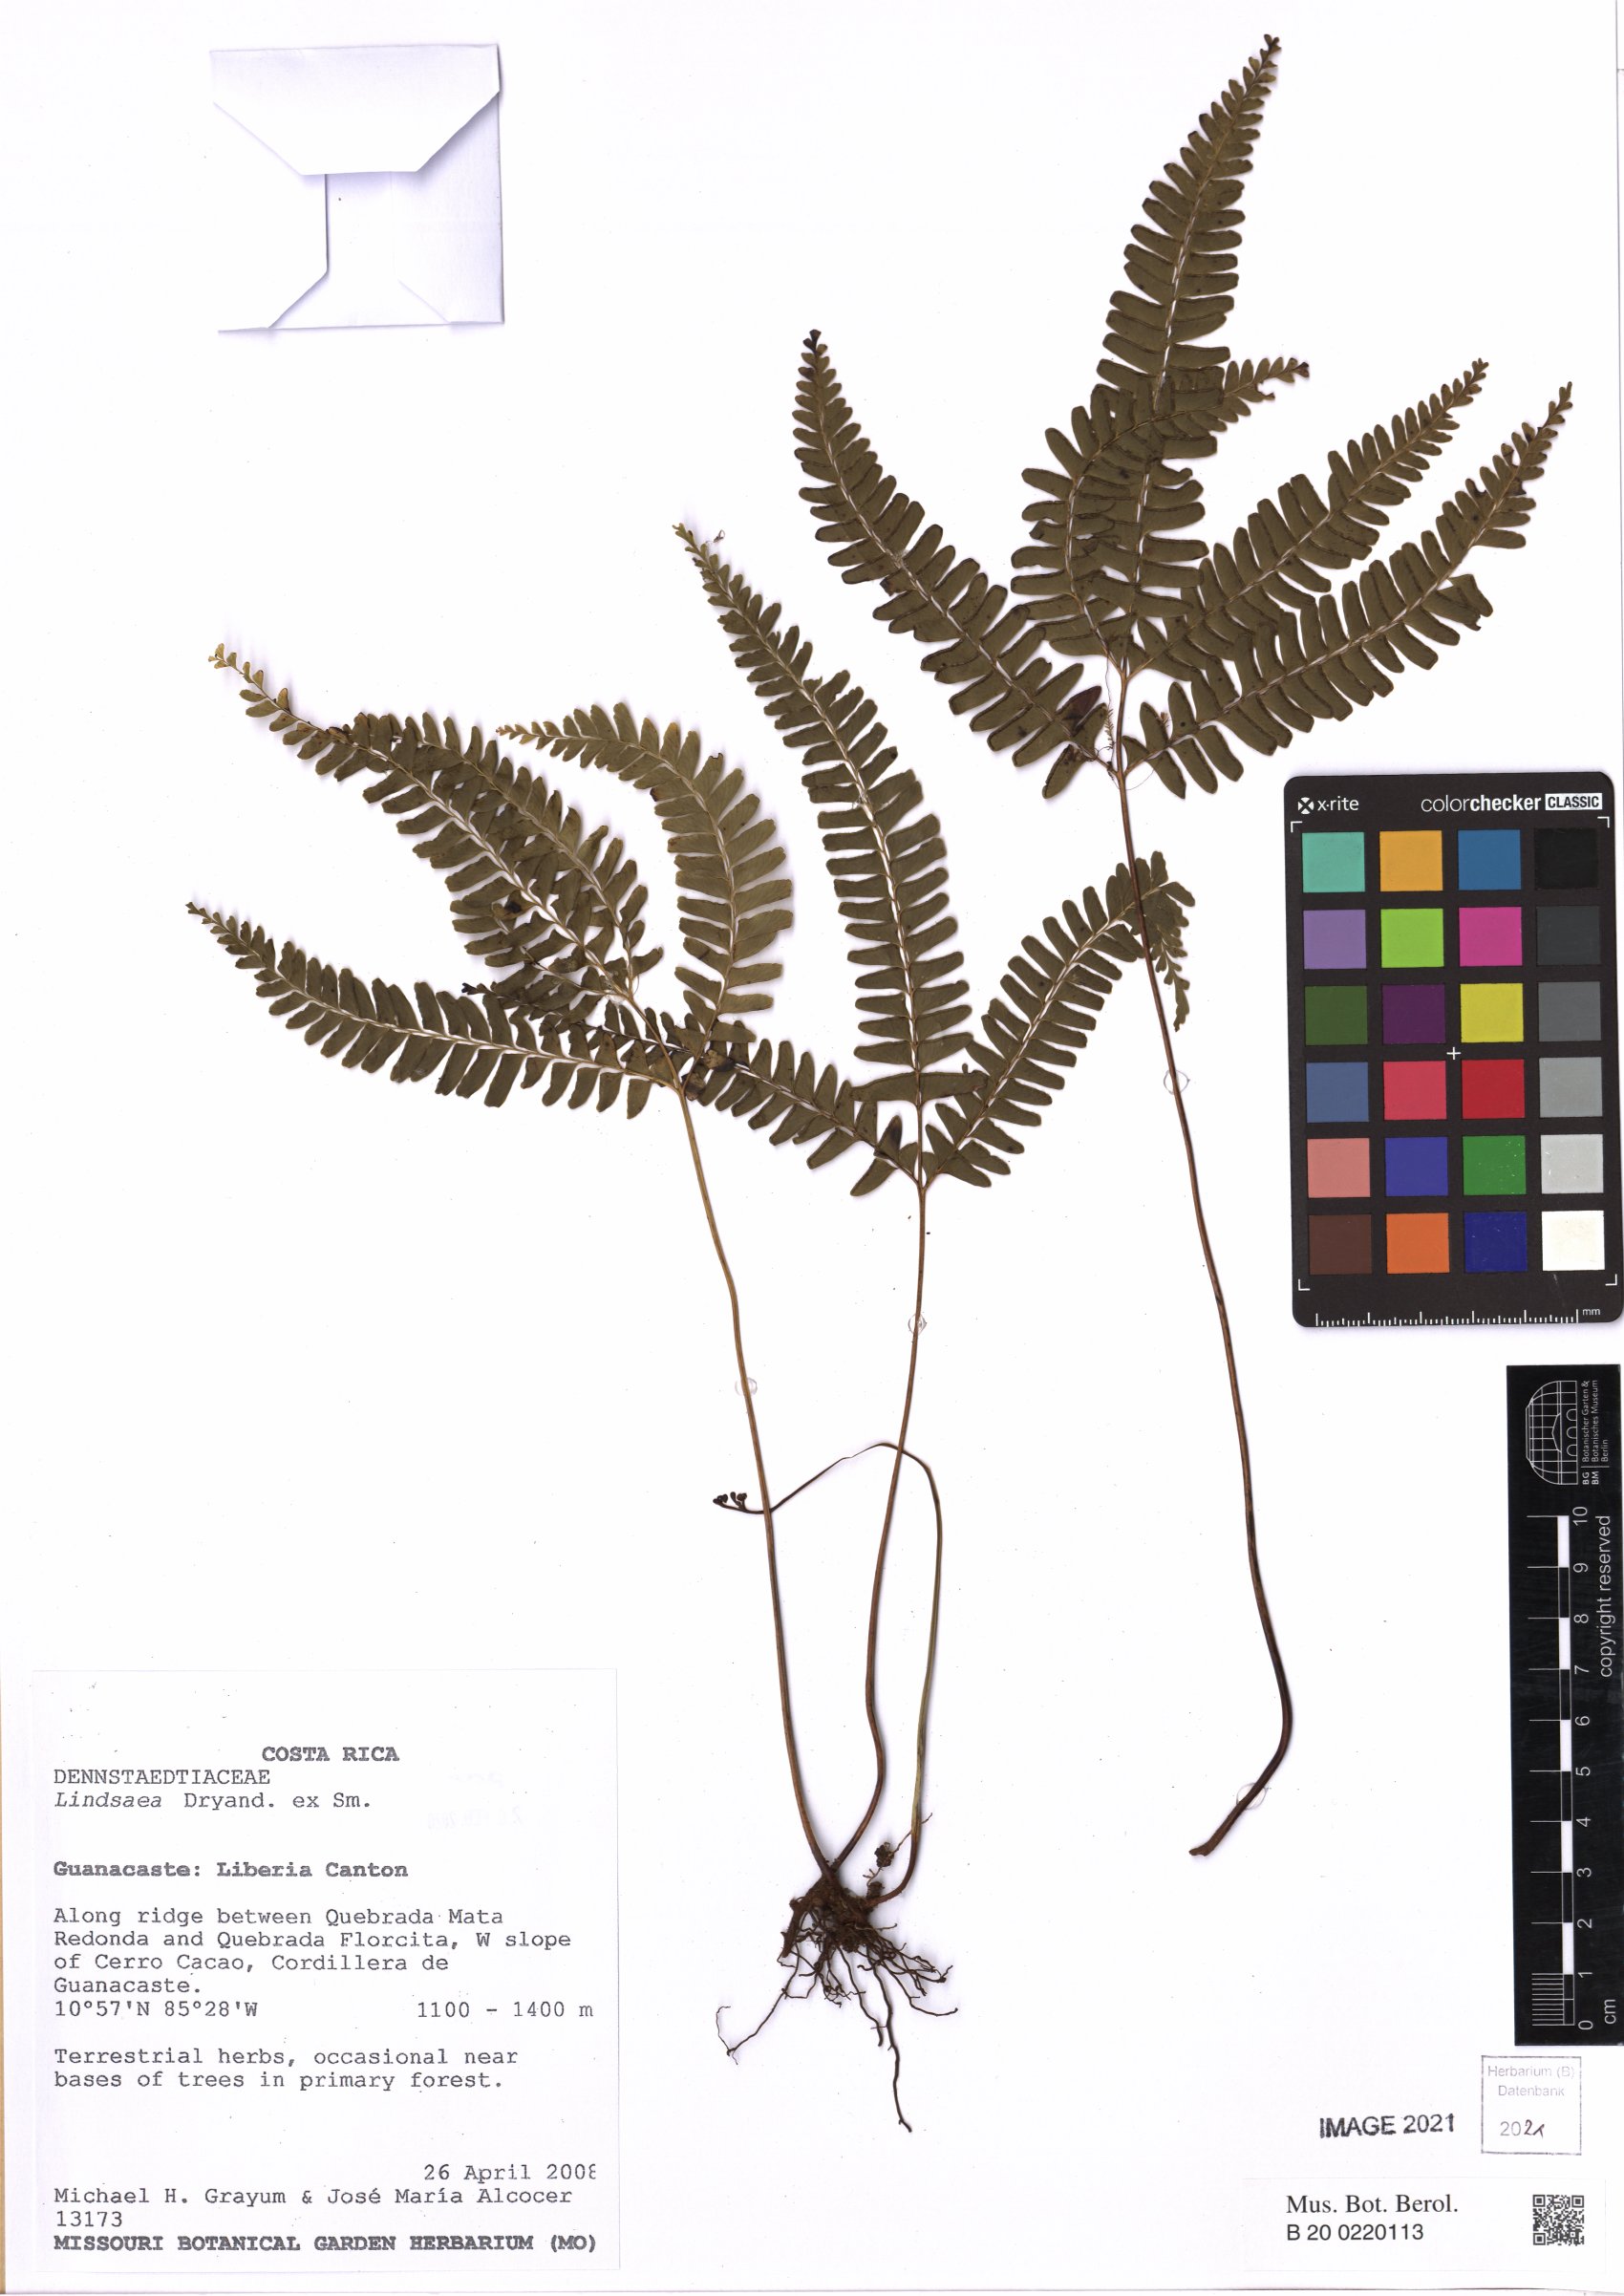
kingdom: Plantae
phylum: Tracheophyta
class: Polypodiopsida
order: Polypodiales
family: Lindsaeaceae
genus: Lindsaea
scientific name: Lindsaea
